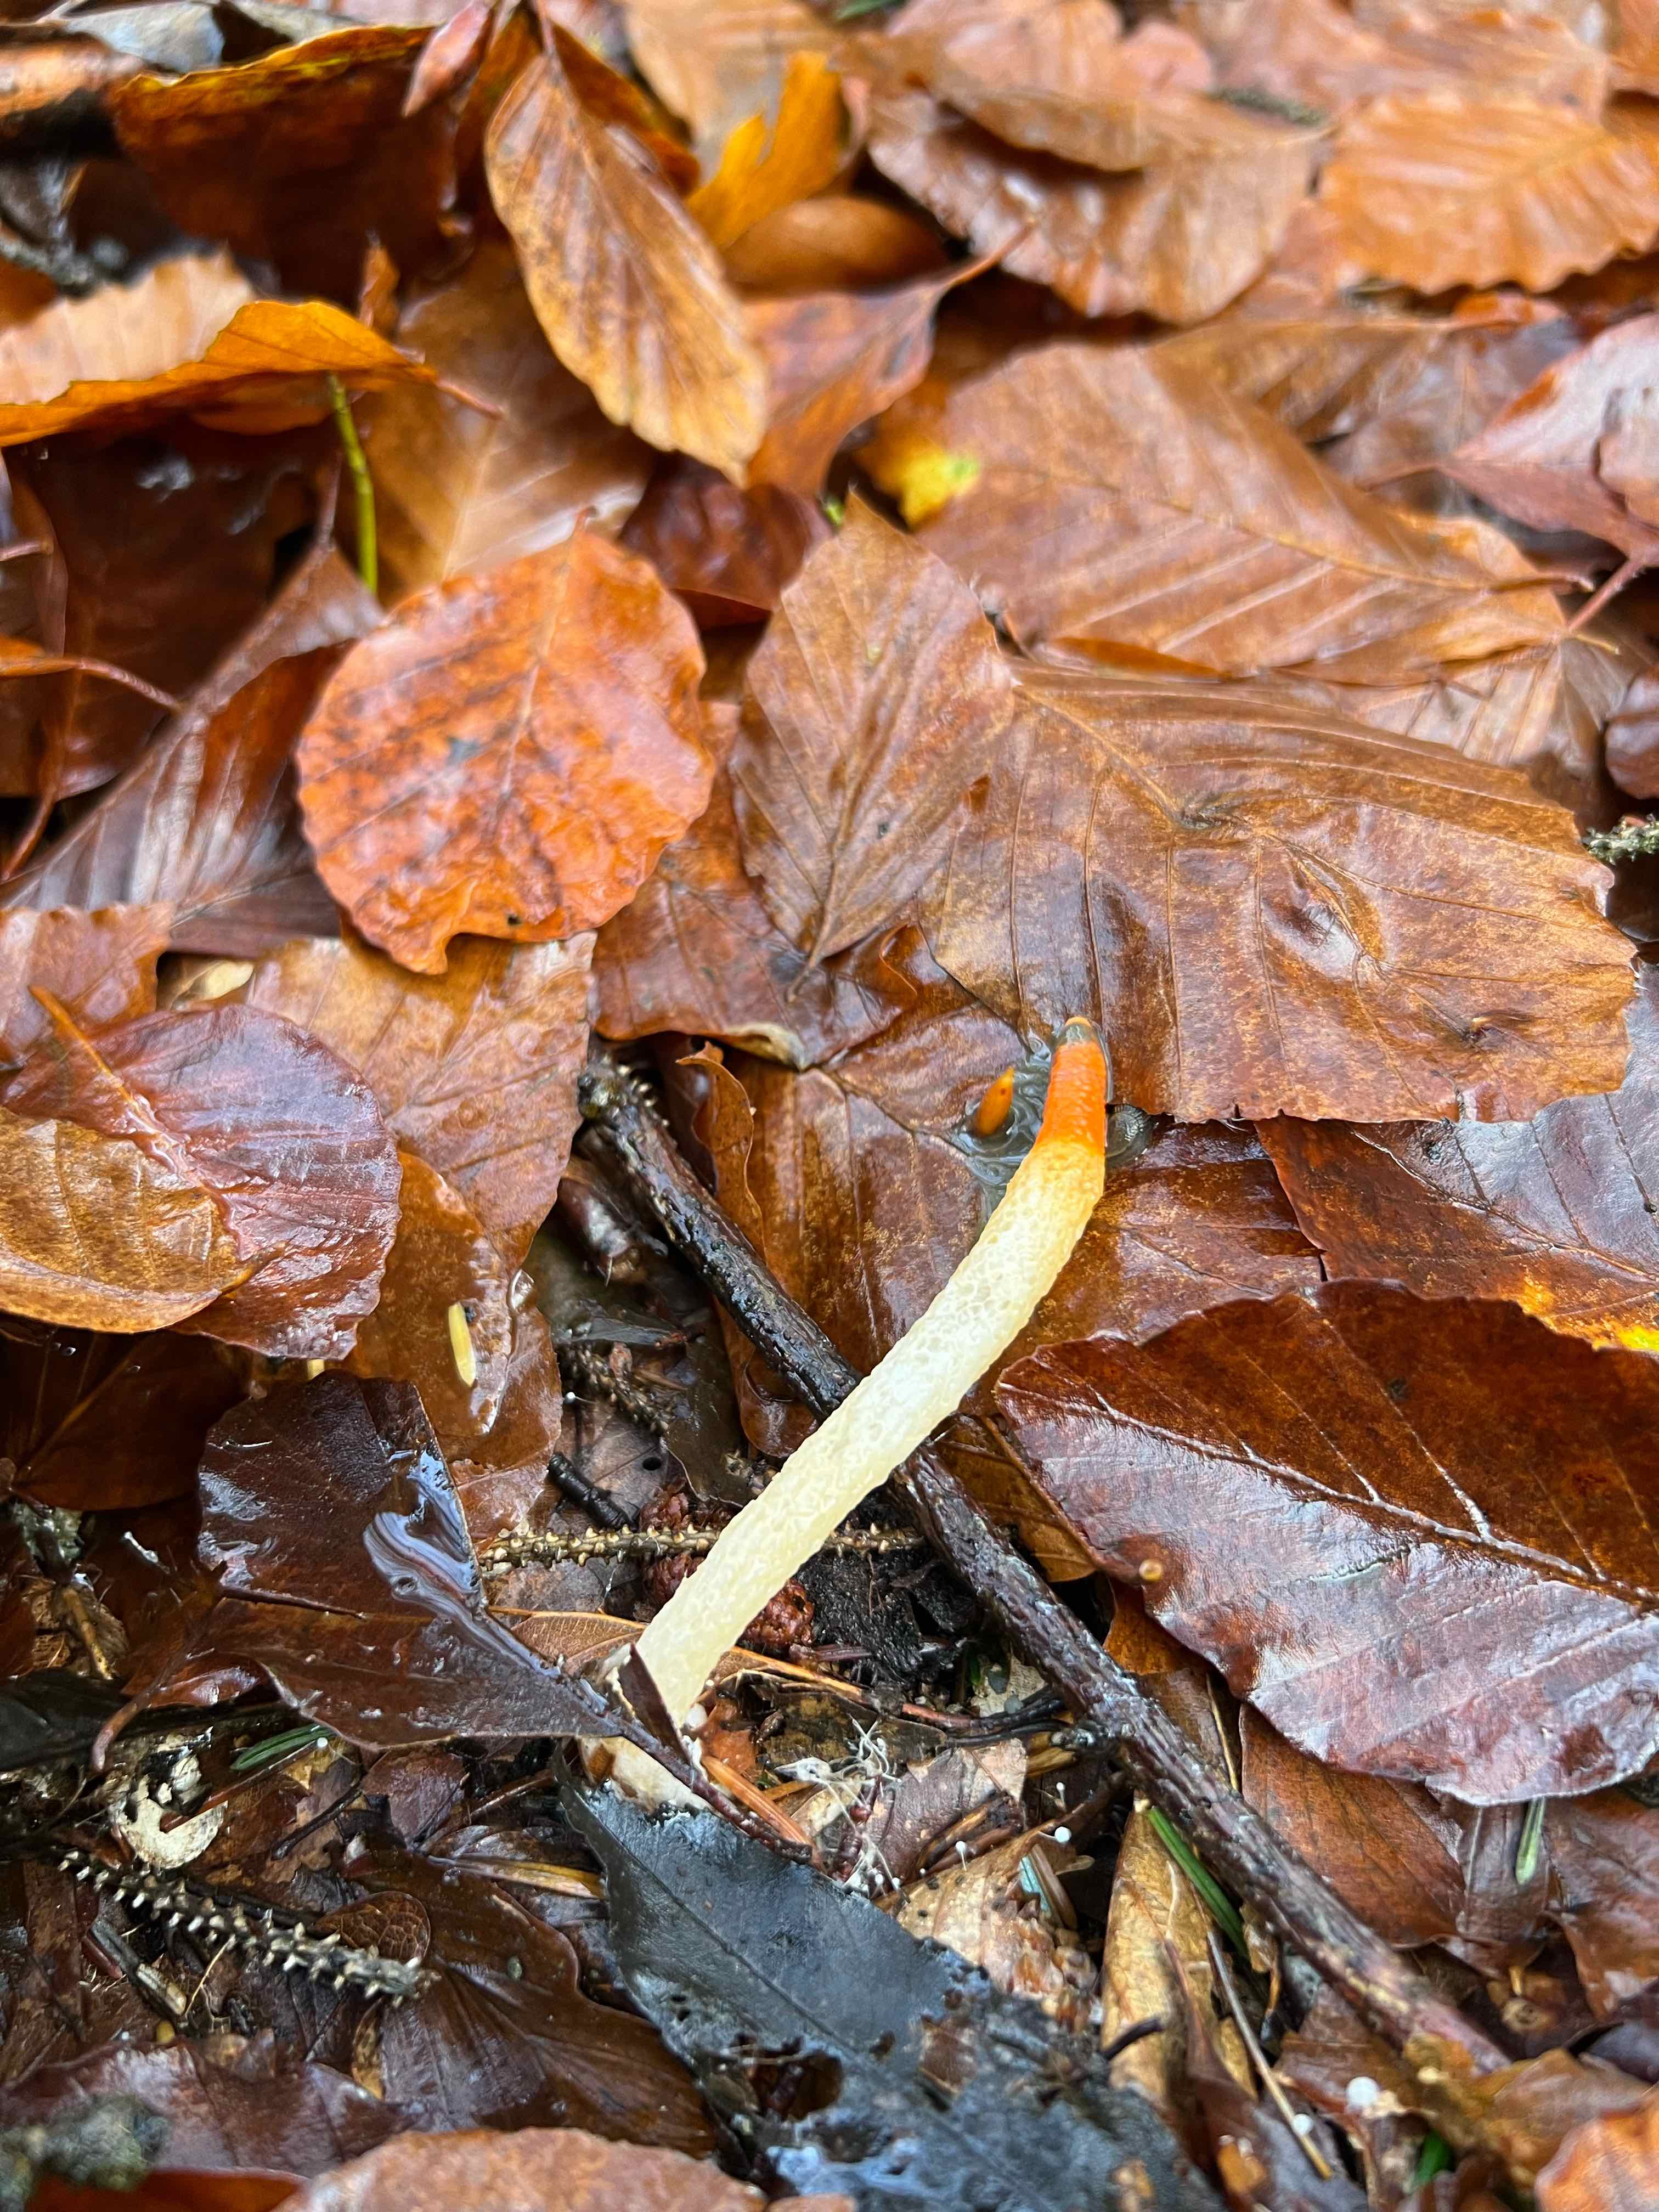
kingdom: Fungi
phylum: Basidiomycota
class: Agaricomycetes
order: Phallales
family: Phallaceae
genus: Mutinus
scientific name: Mutinus caninus
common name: hunde-stinksvamp
